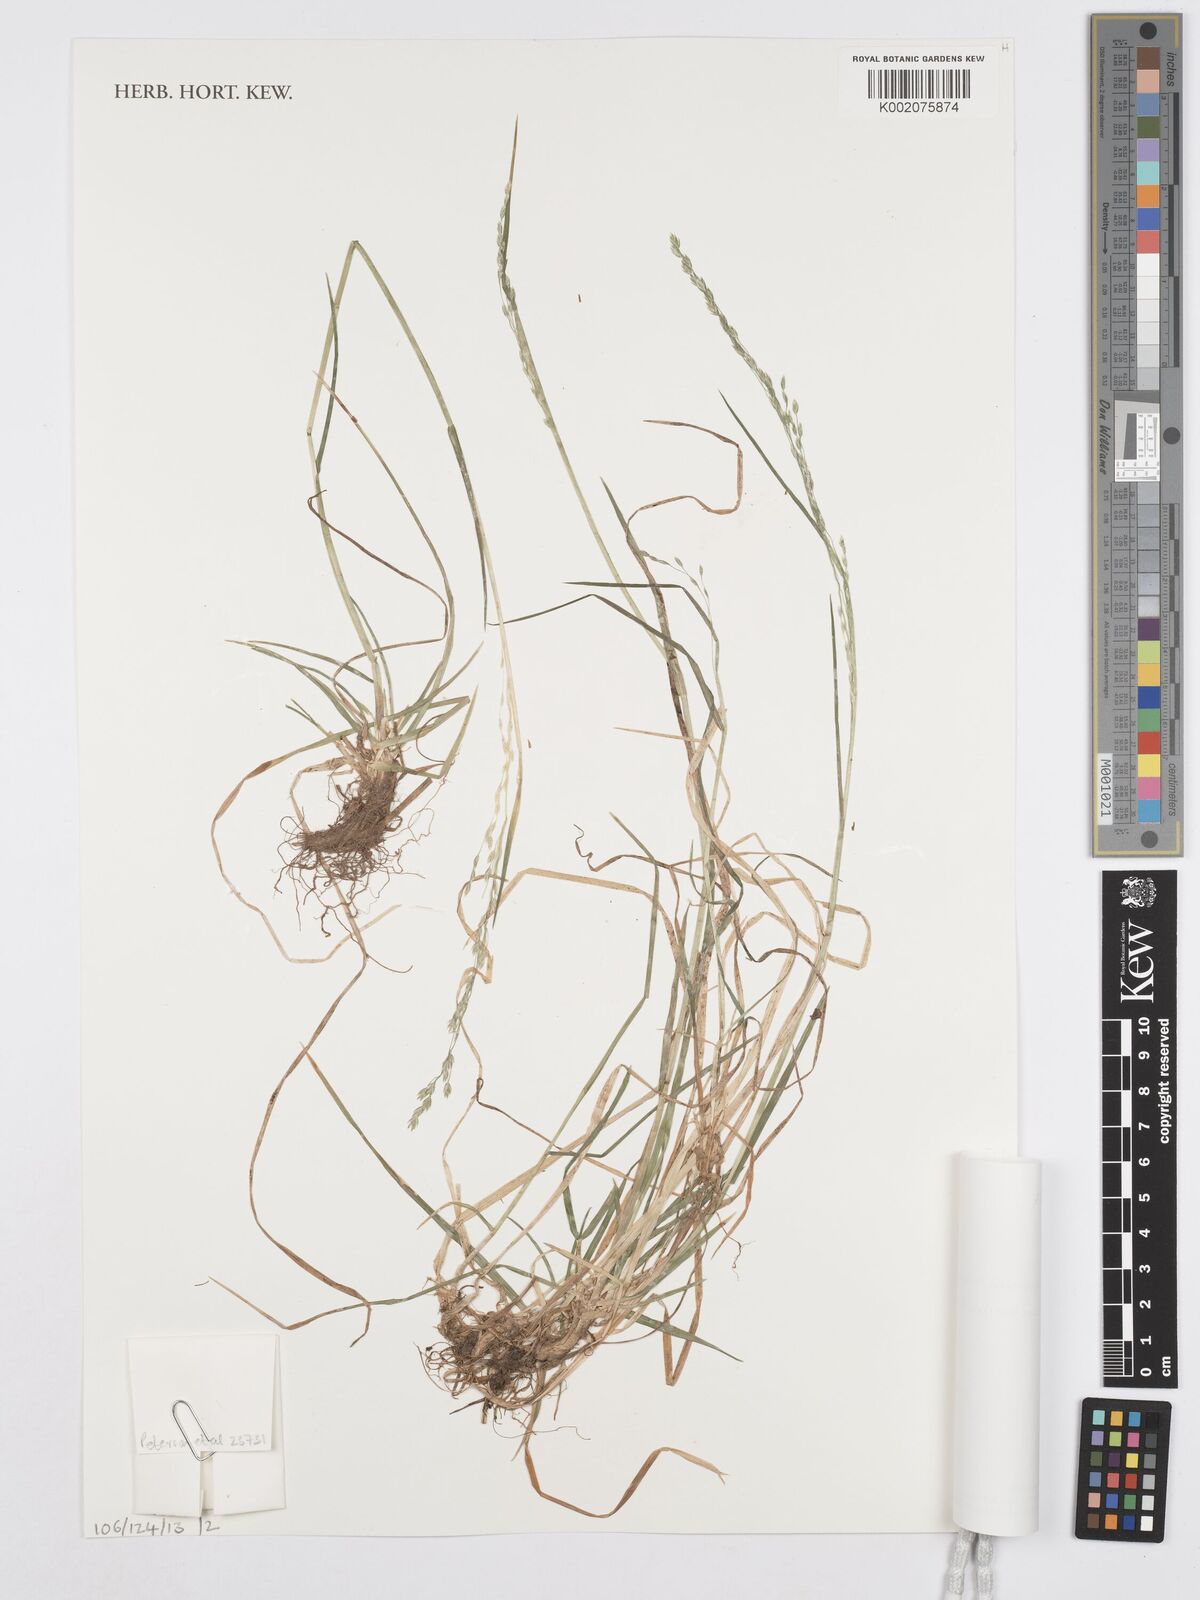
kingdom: Plantae
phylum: Tracheophyta
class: Liliopsida
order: Poales
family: Poaceae
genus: Poa
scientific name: Poa alsodes
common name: Grove bluegrass
